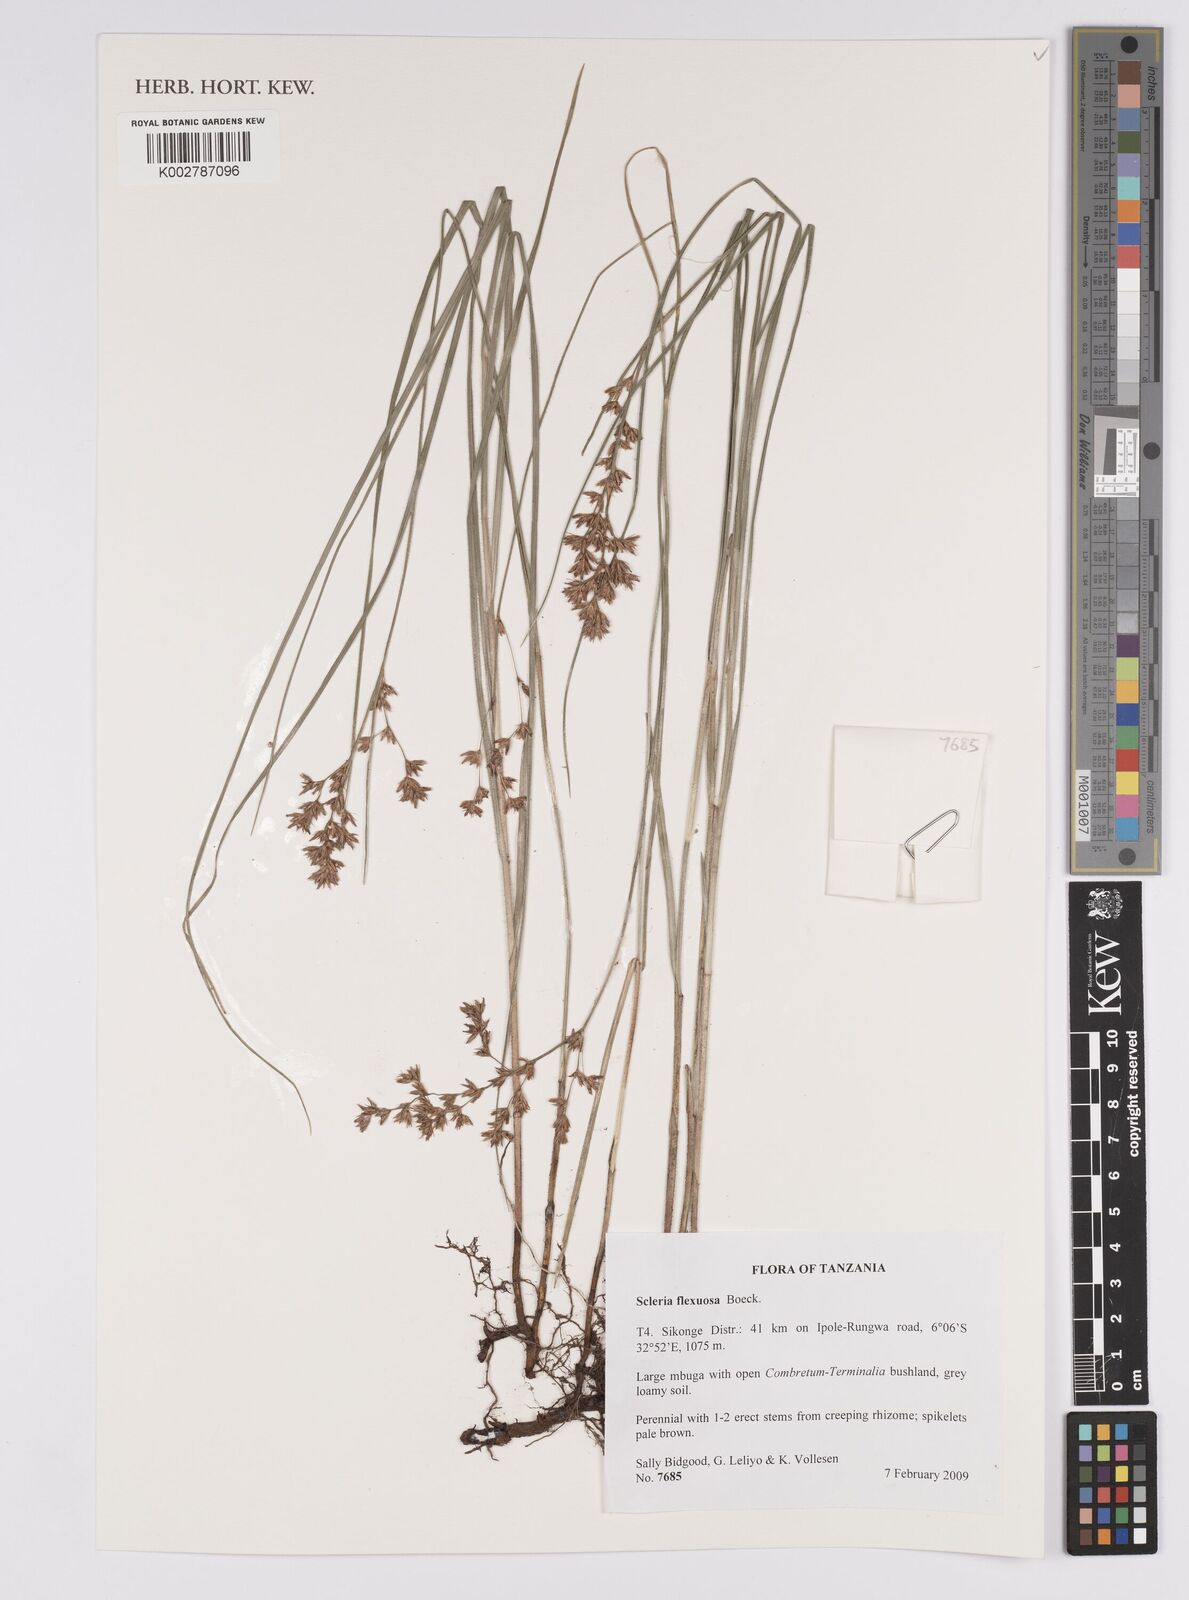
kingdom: Plantae
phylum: Tracheophyta
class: Liliopsida
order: Poales
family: Cyperaceae
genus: Scleria
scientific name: Scleria flexuosa
